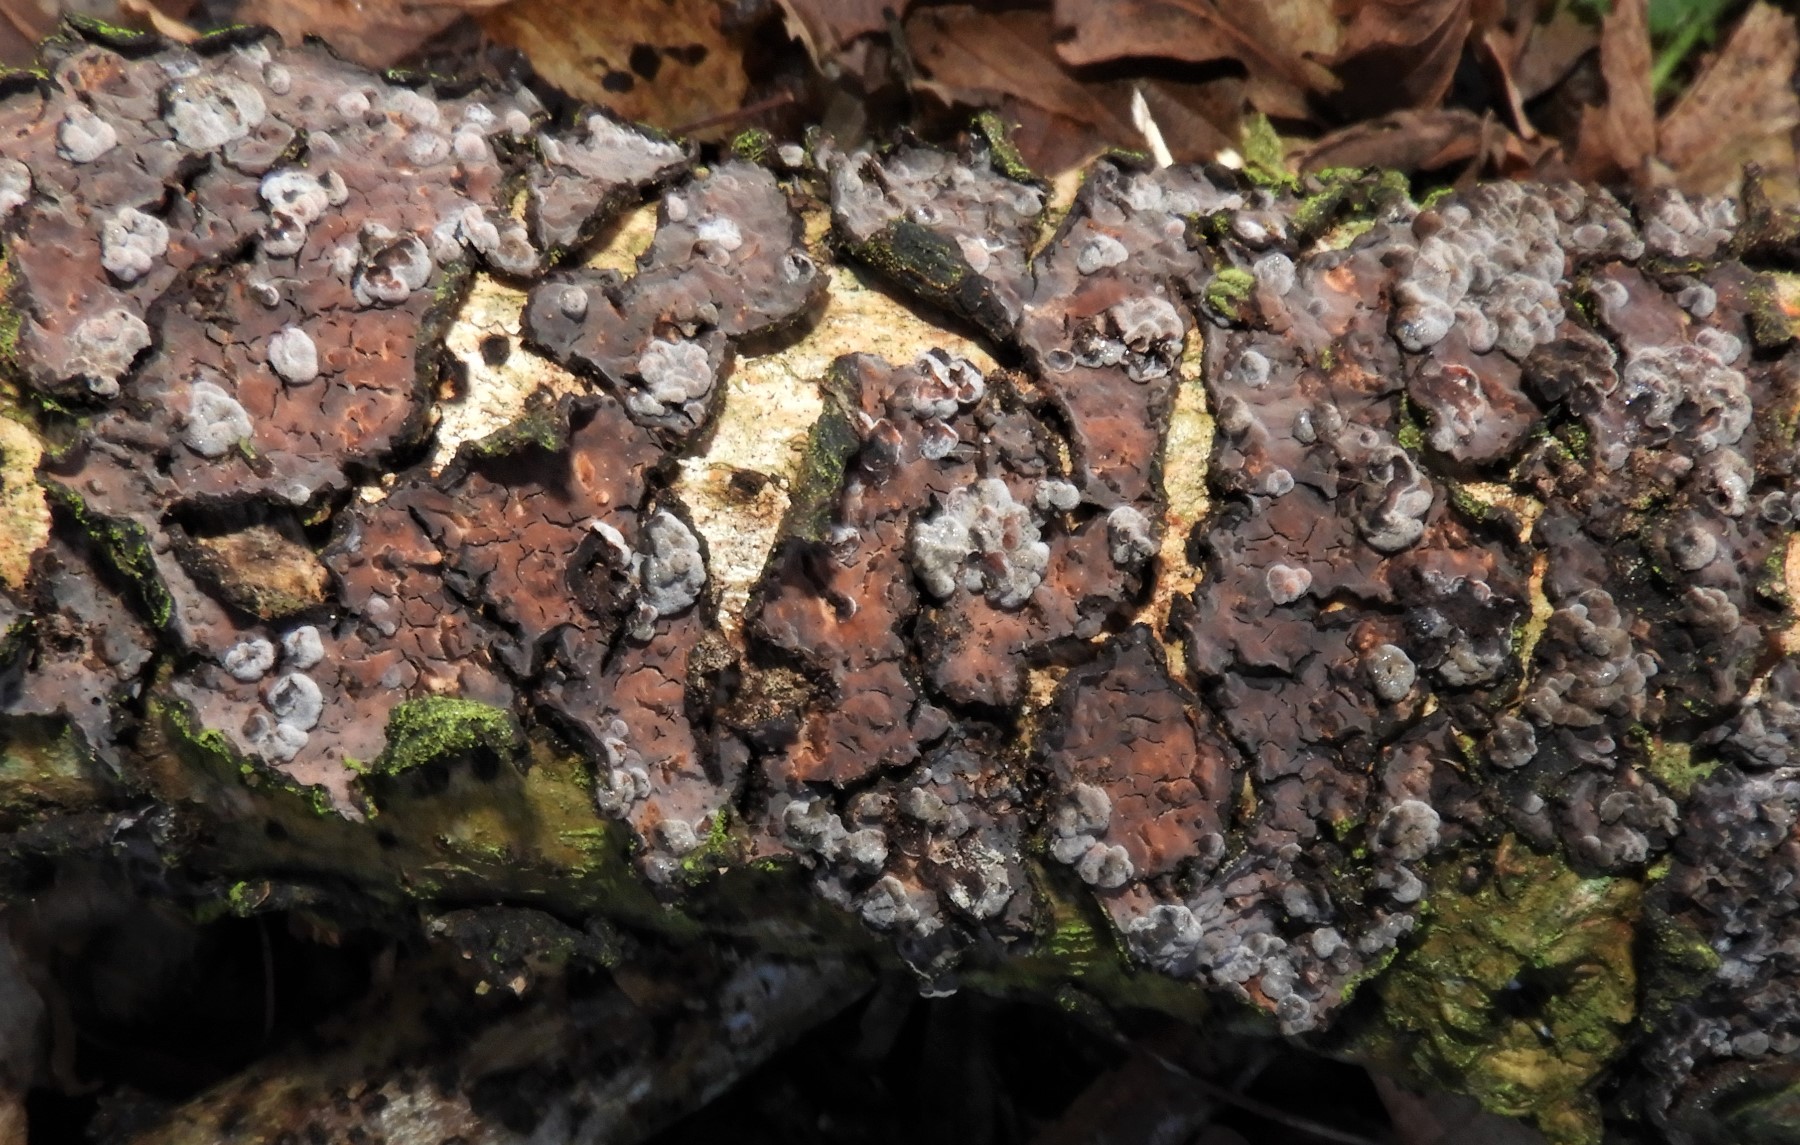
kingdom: Fungi
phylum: Basidiomycota
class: Agaricomycetes
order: Russulales
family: Peniophoraceae
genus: Peniophora
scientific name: Peniophora quercina
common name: ege-voksskind
